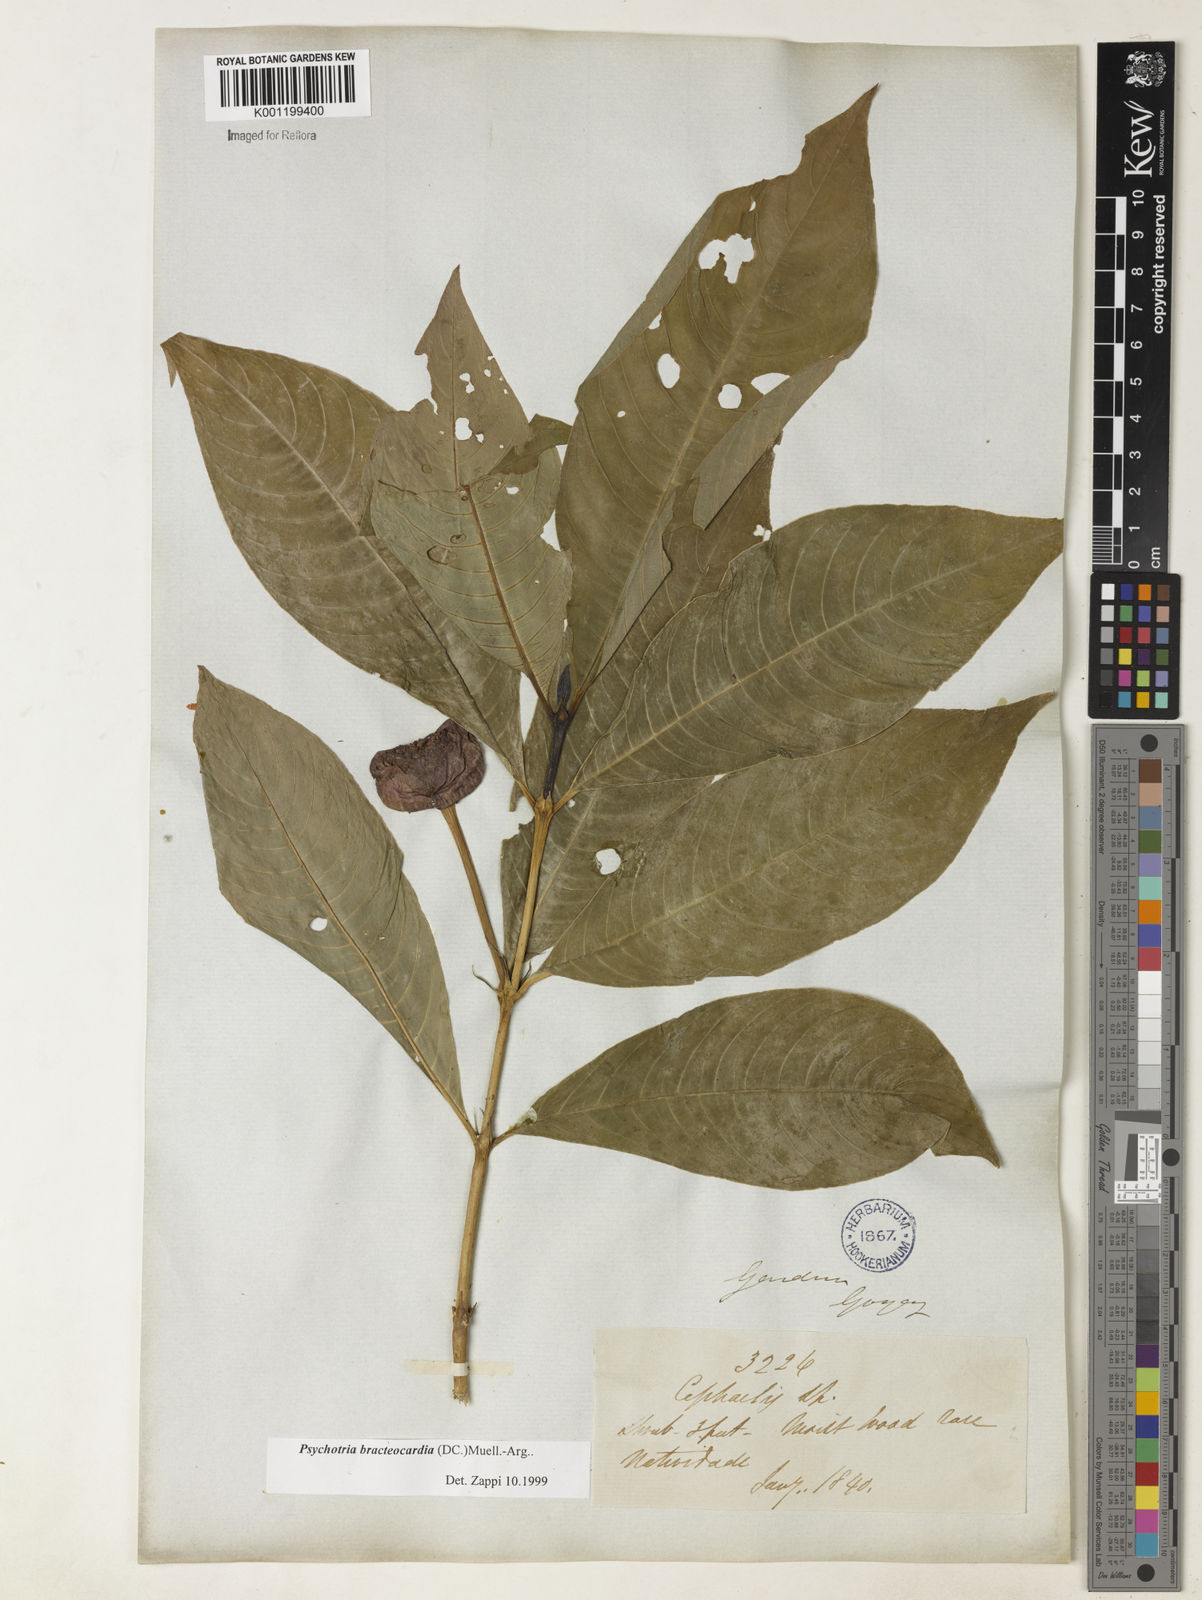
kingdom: Plantae
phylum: Tracheophyta
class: Magnoliopsida
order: Gentianales
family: Rubiaceae
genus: Psychotria
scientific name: Psychotria
